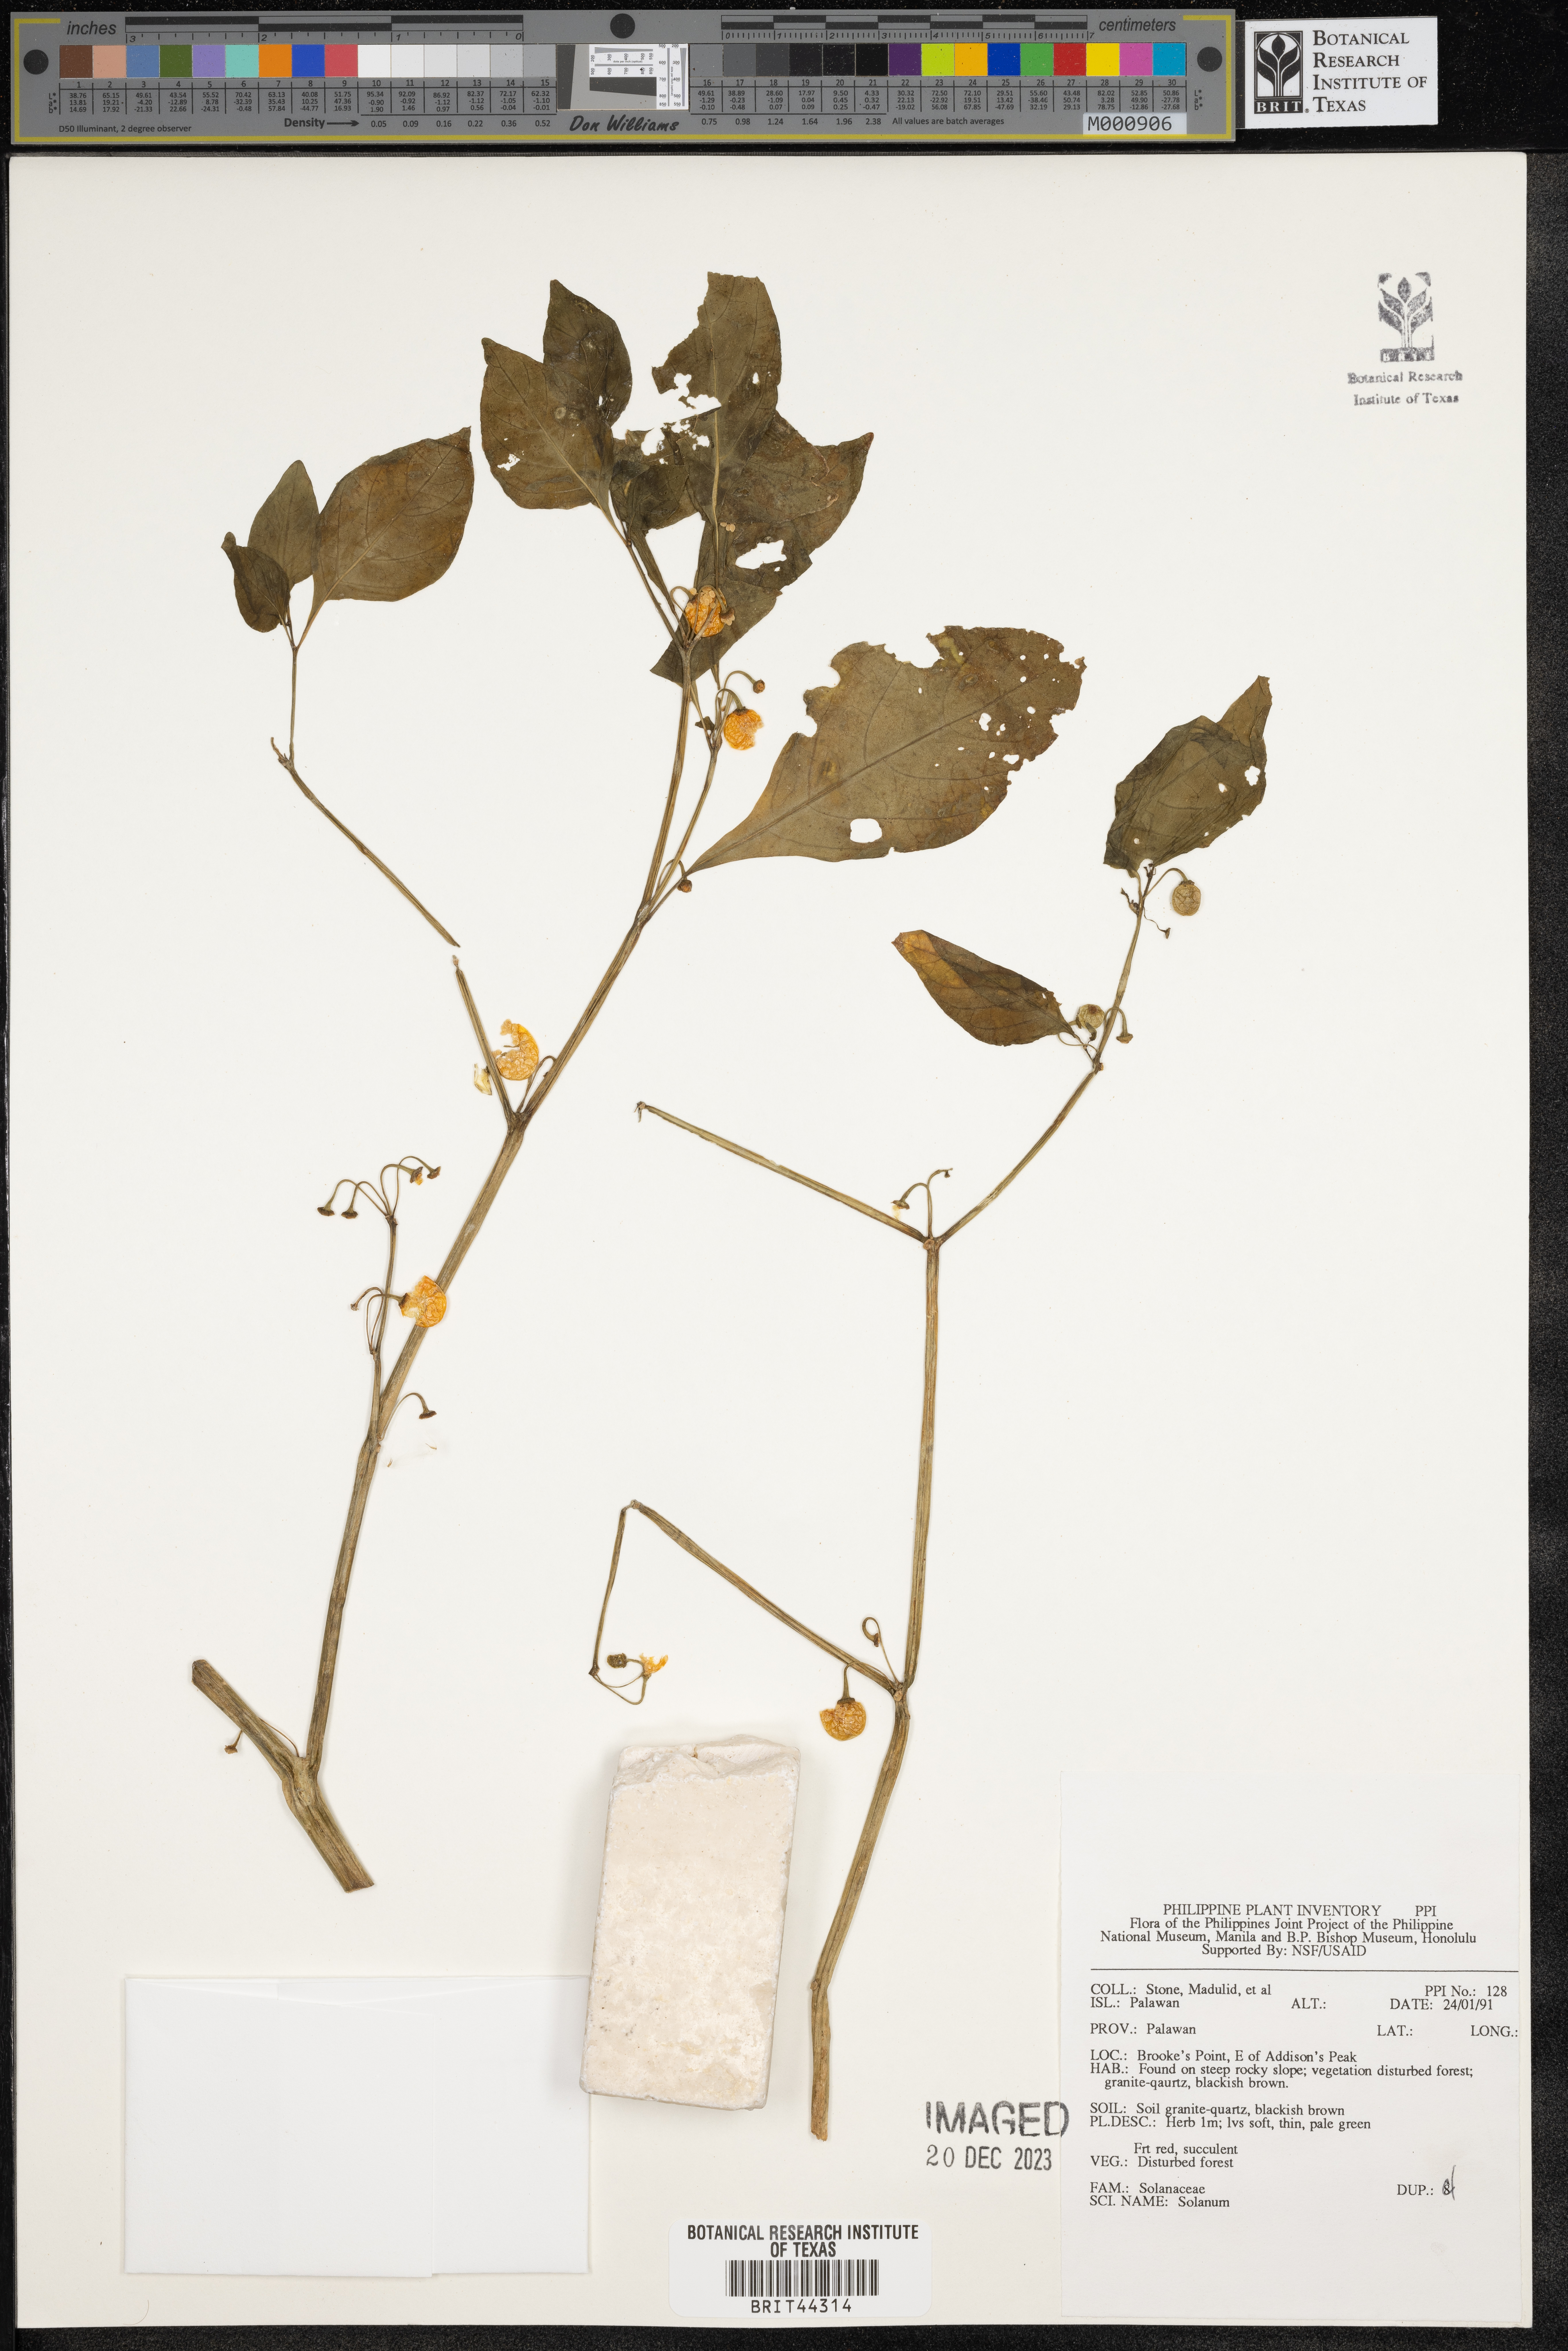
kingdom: Plantae
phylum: Tracheophyta
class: Magnoliopsida
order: Solanales
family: Solanaceae
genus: Solanum
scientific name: Solanum
